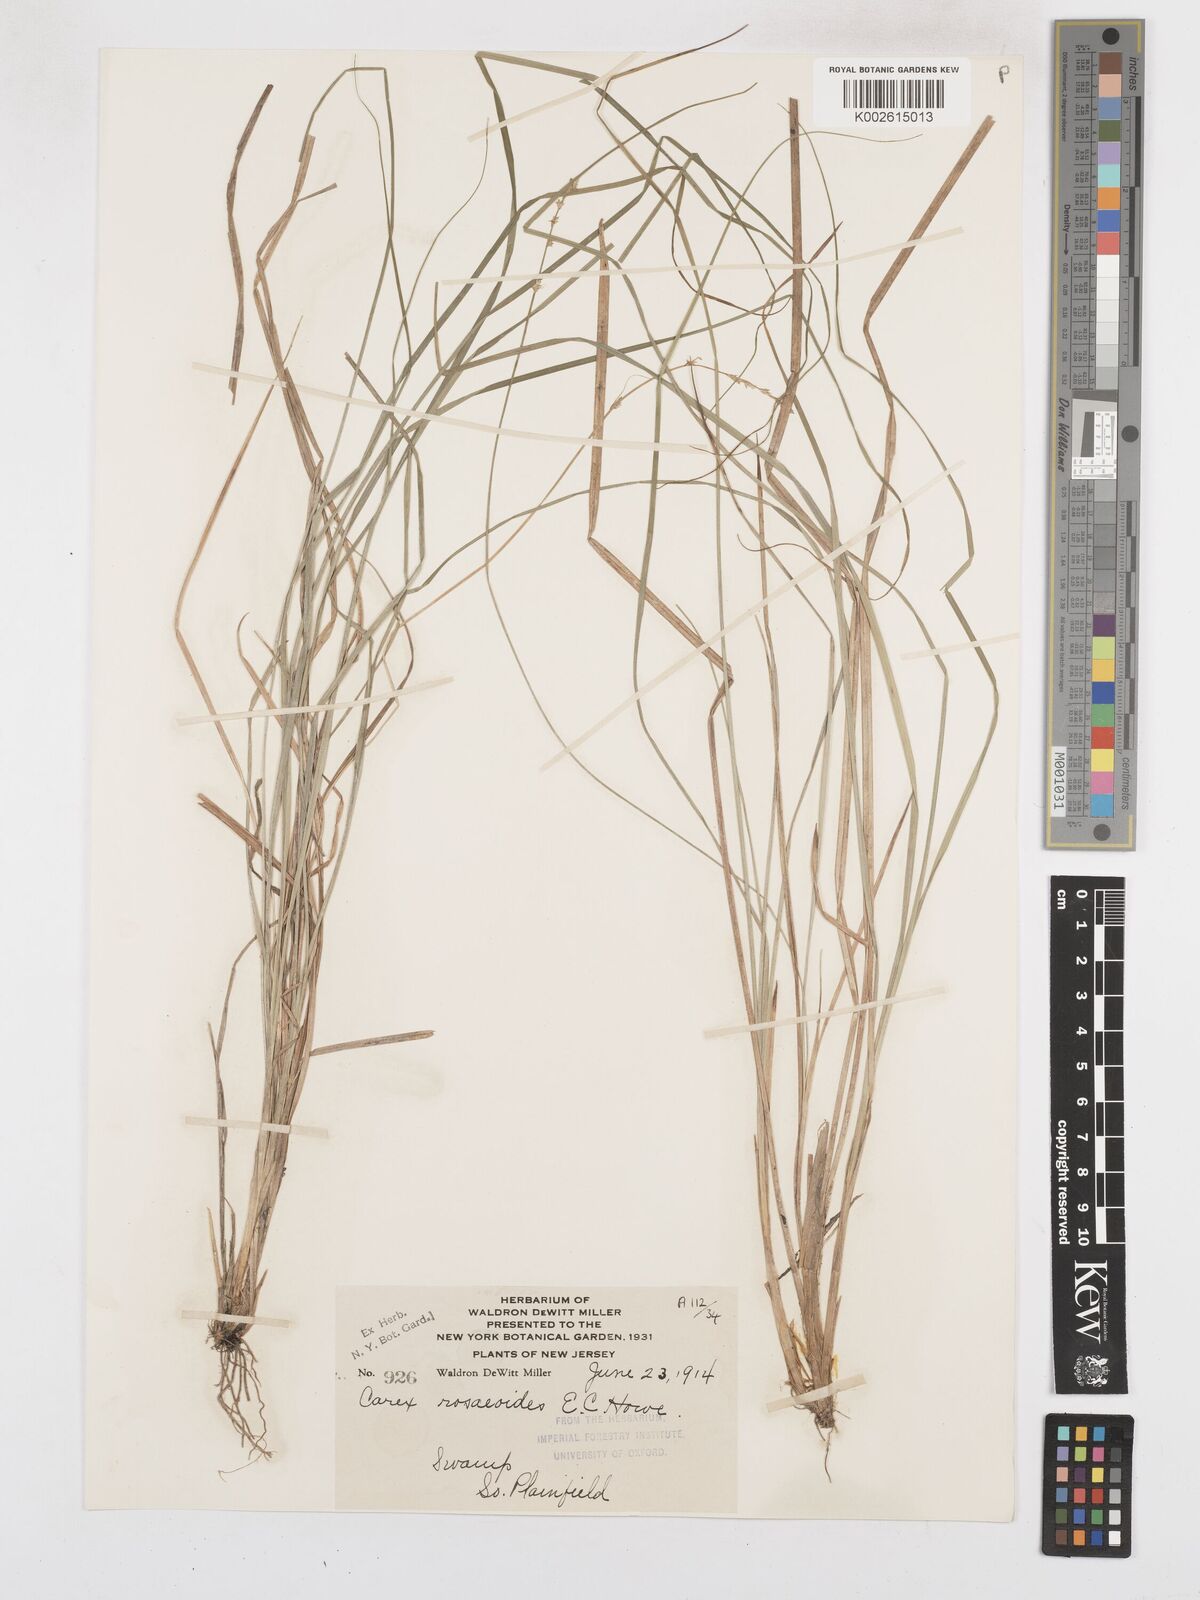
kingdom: Plantae
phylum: Tracheophyta
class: Liliopsida
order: Poales
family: Cyperaceae
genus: Carex
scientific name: Carex seorsa
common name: Swamp star sedge
